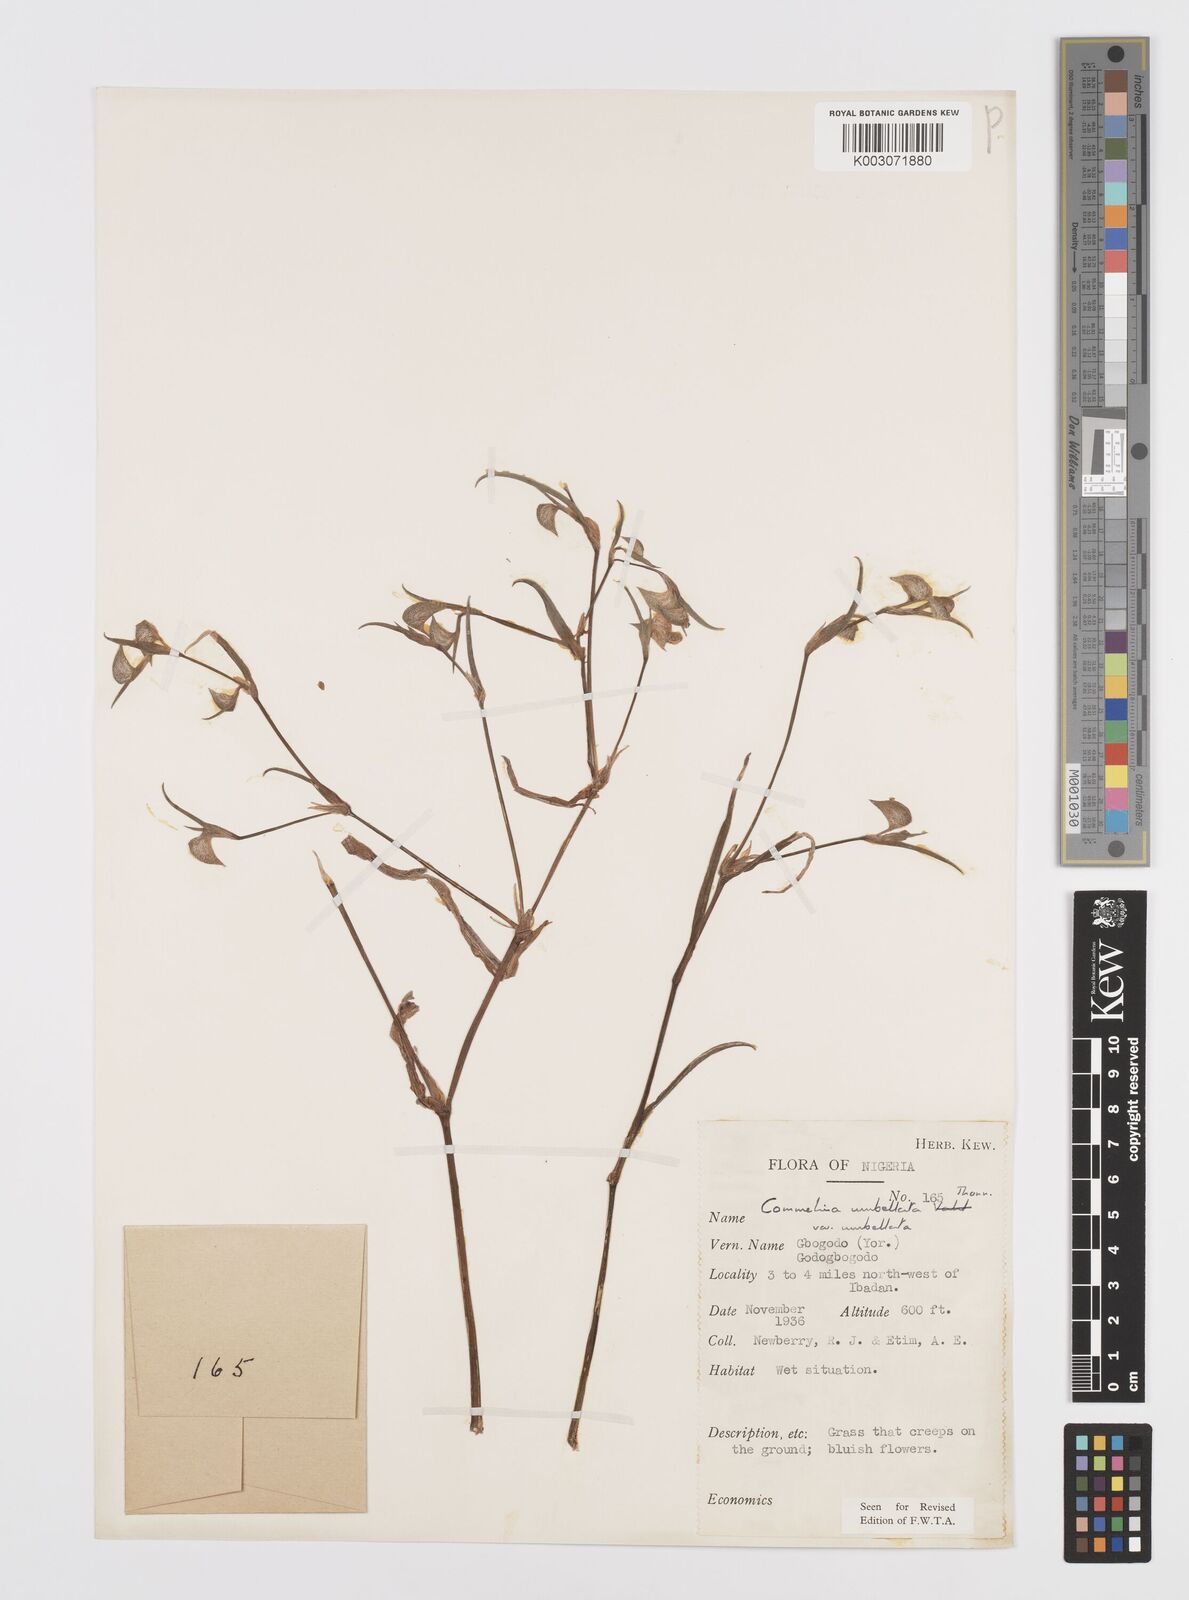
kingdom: Plantae
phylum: Tracheophyta
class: Liliopsida
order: Commelinales
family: Commelinaceae
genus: Commelina
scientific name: Commelina
